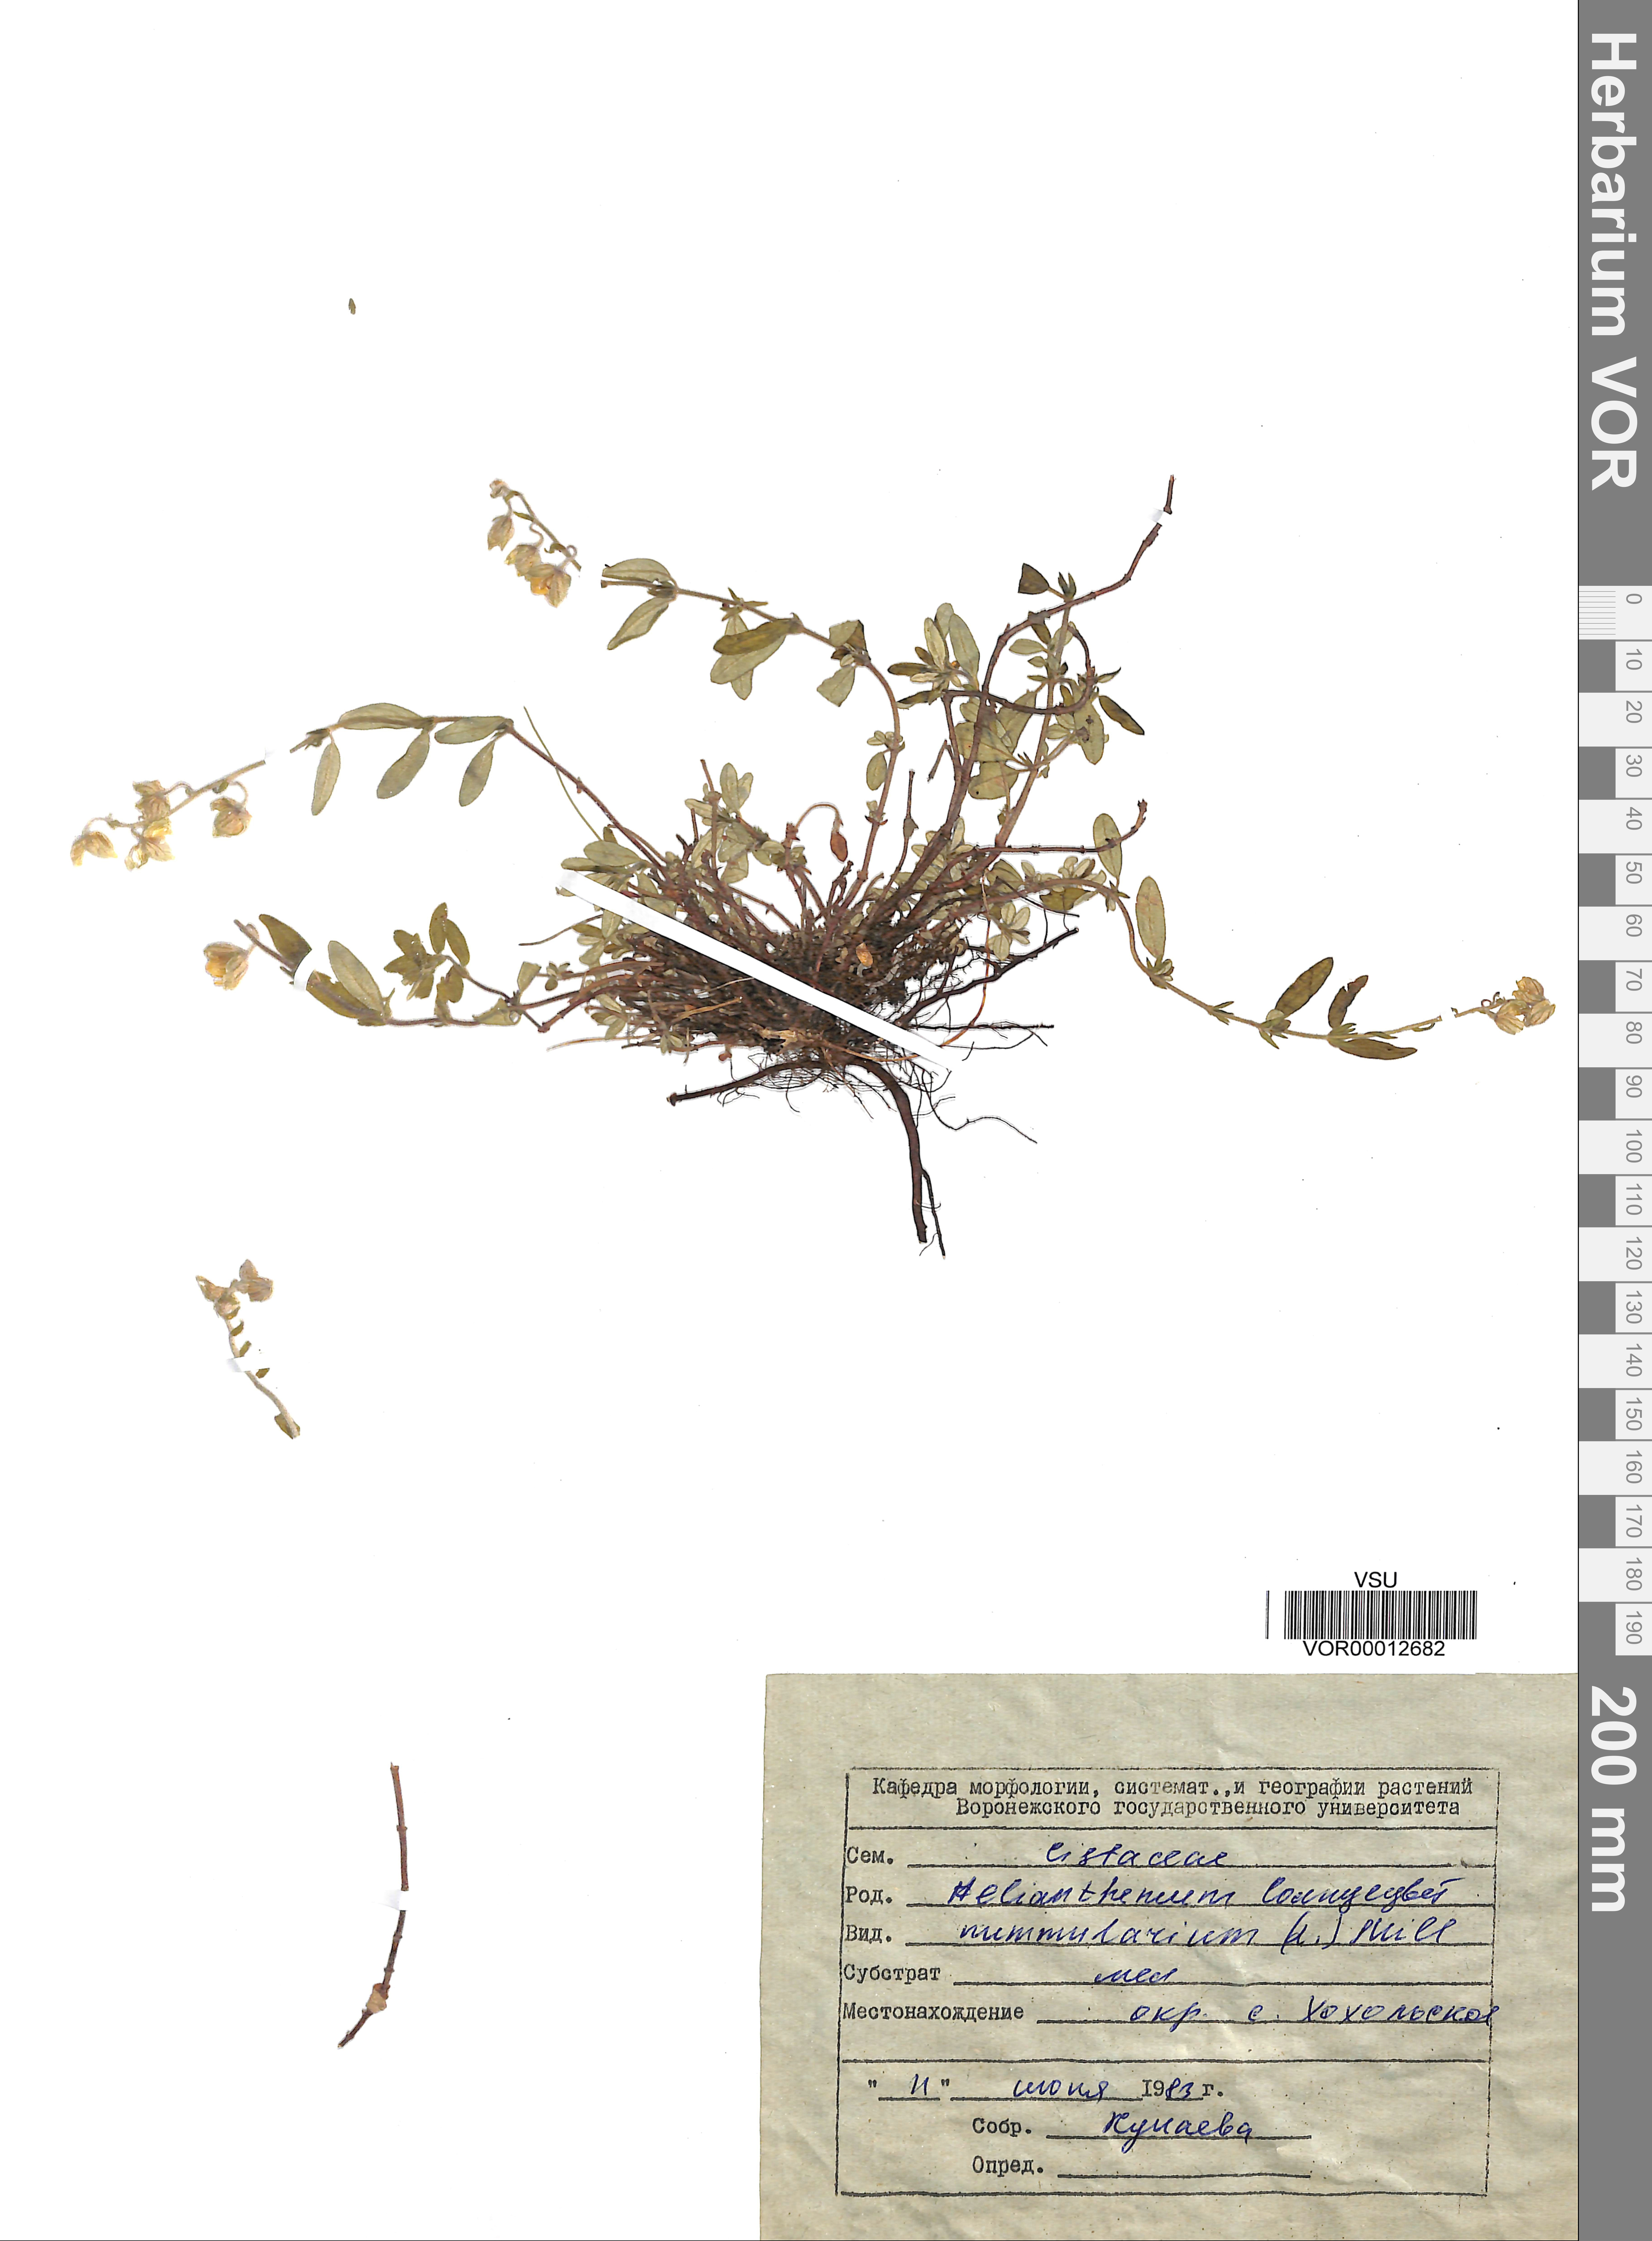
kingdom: Plantae
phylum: Tracheophyta
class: Magnoliopsida
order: Malvales
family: Cistaceae
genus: Helianthemum
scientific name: Helianthemum nummularium
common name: Common rock-rose
